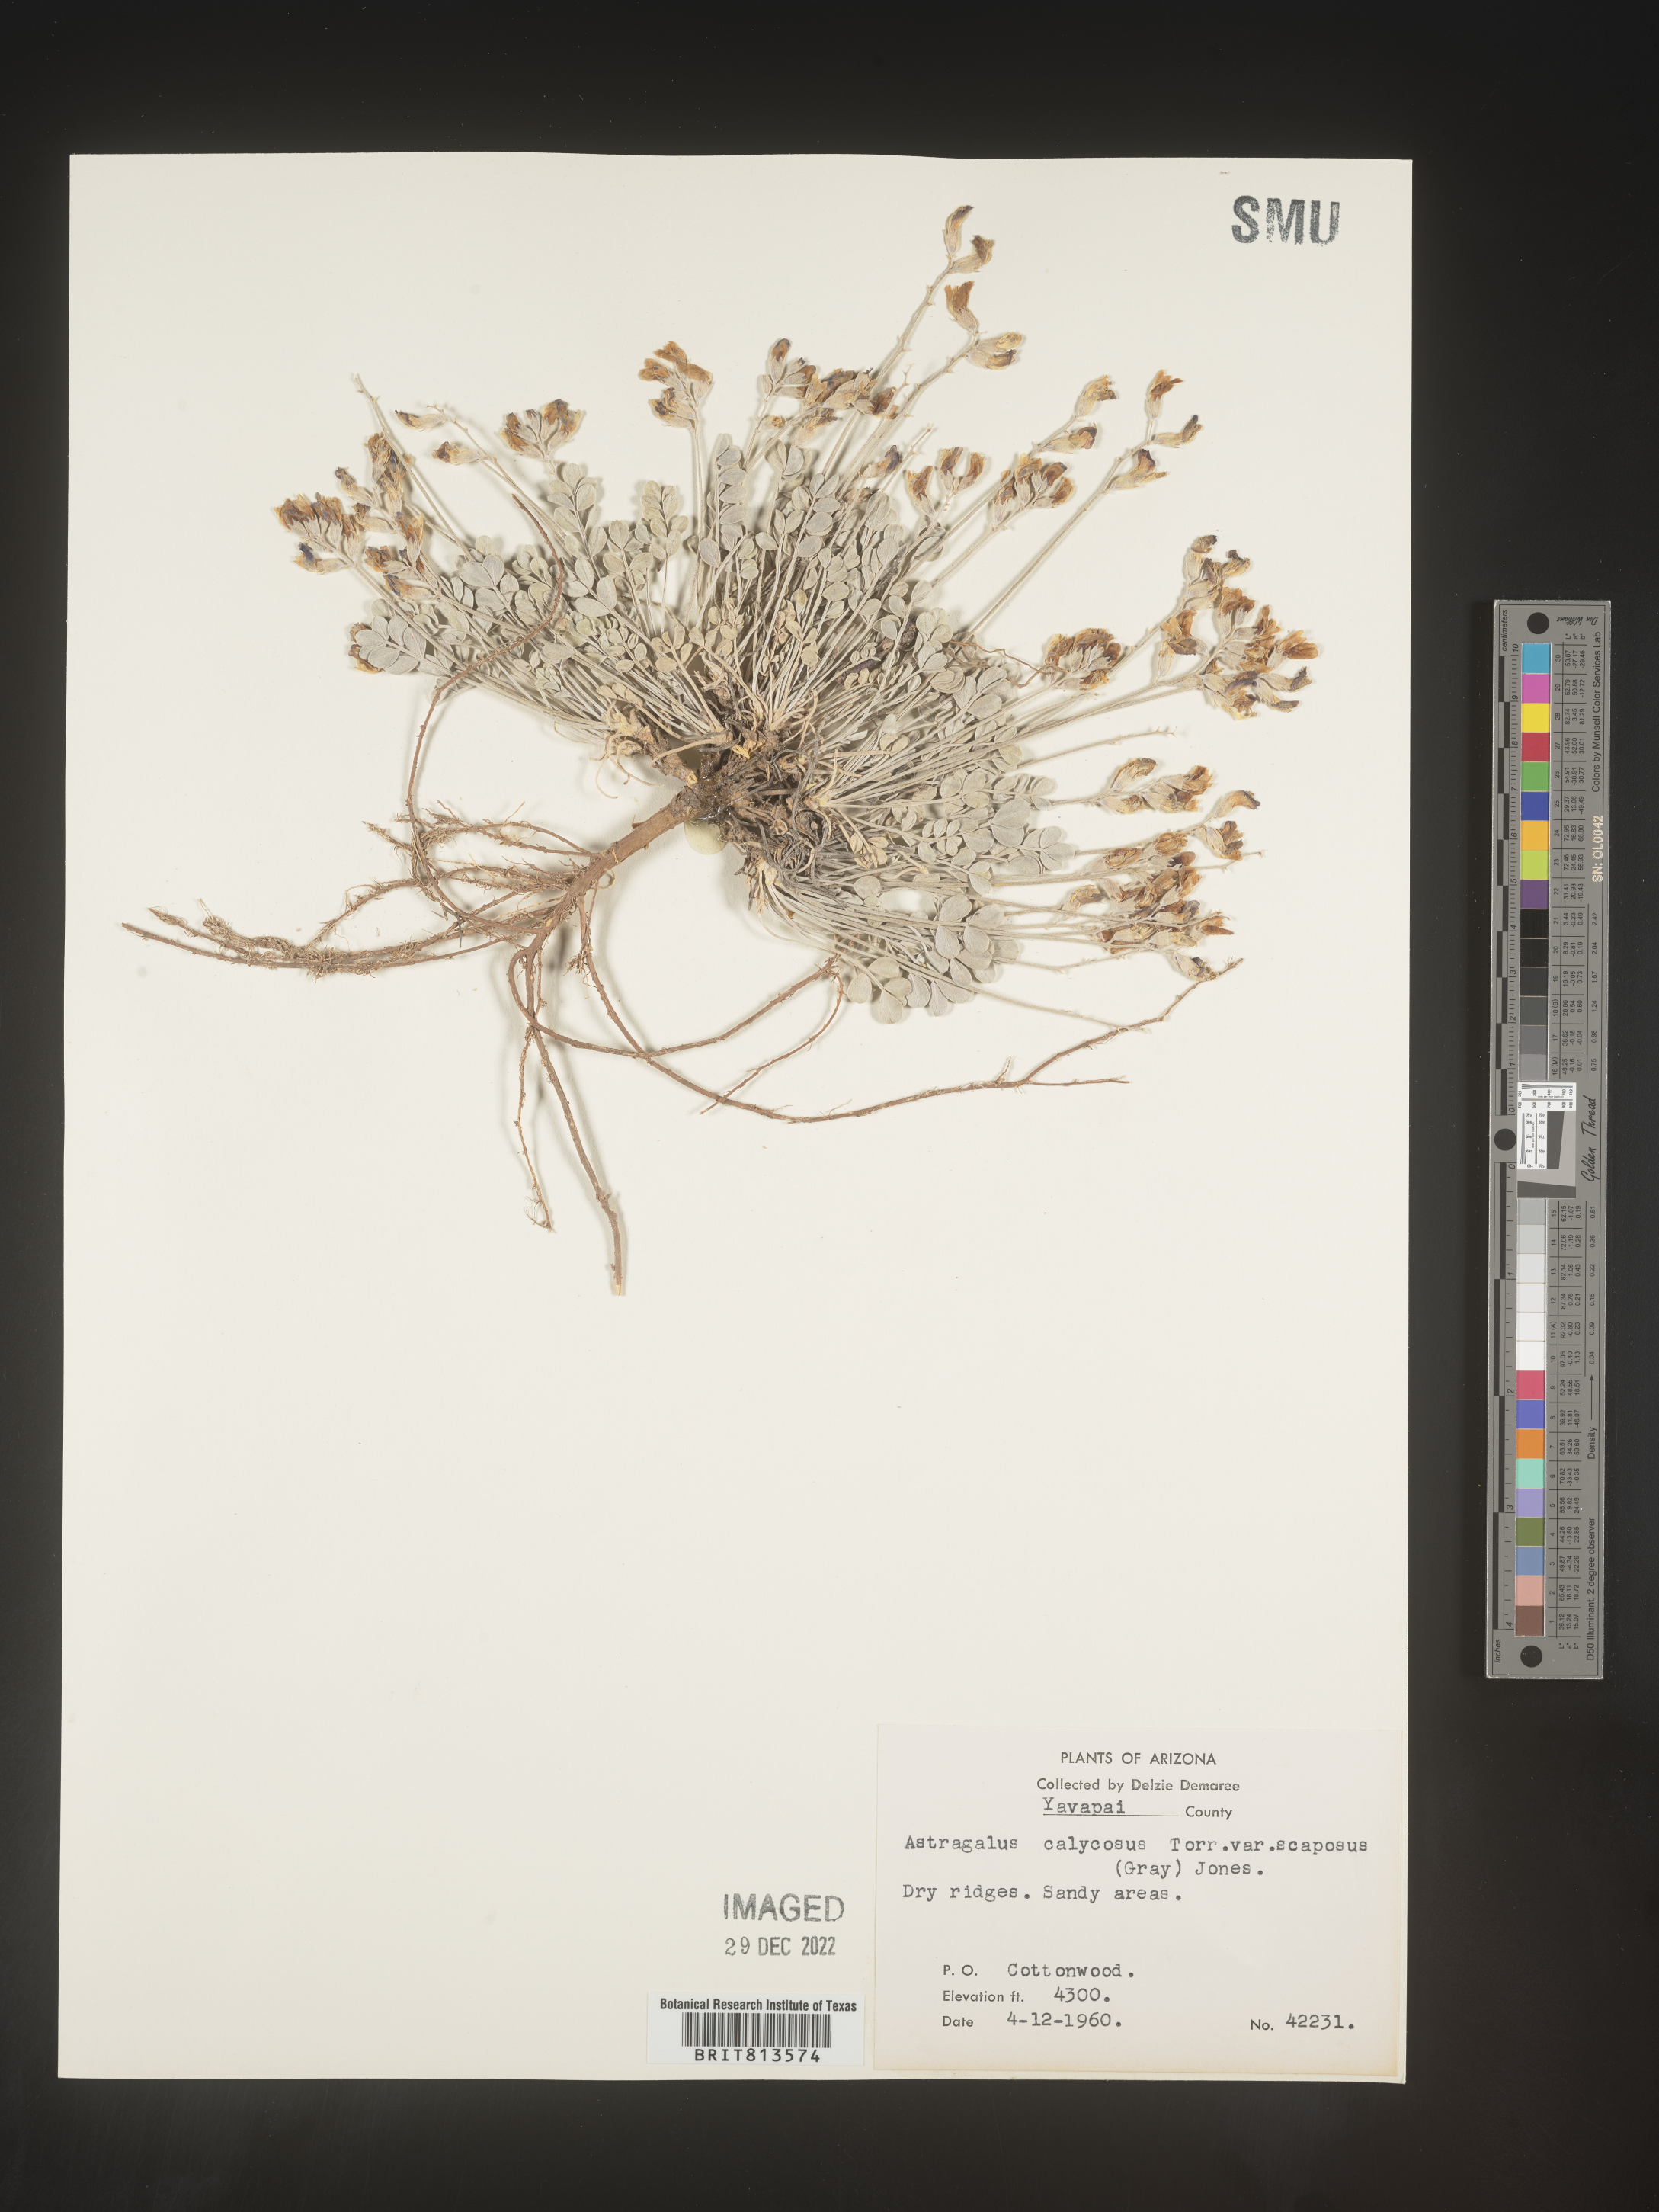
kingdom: Plantae
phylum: Tracheophyta
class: Magnoliopsida
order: Fabales
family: Fabaceae
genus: Astragalus
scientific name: Astragalus
